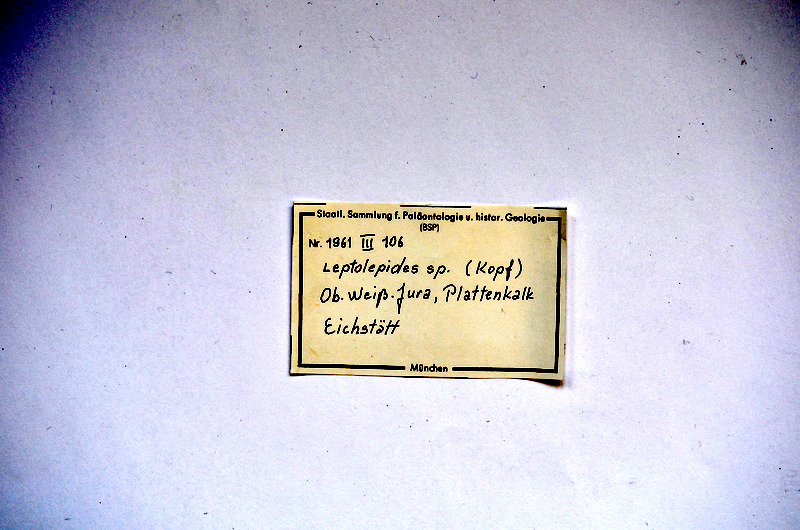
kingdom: Animalia
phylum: Chordata
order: Salmoniformes
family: Orthogonikleithridae
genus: Leptolepides
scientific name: Leptolepides
